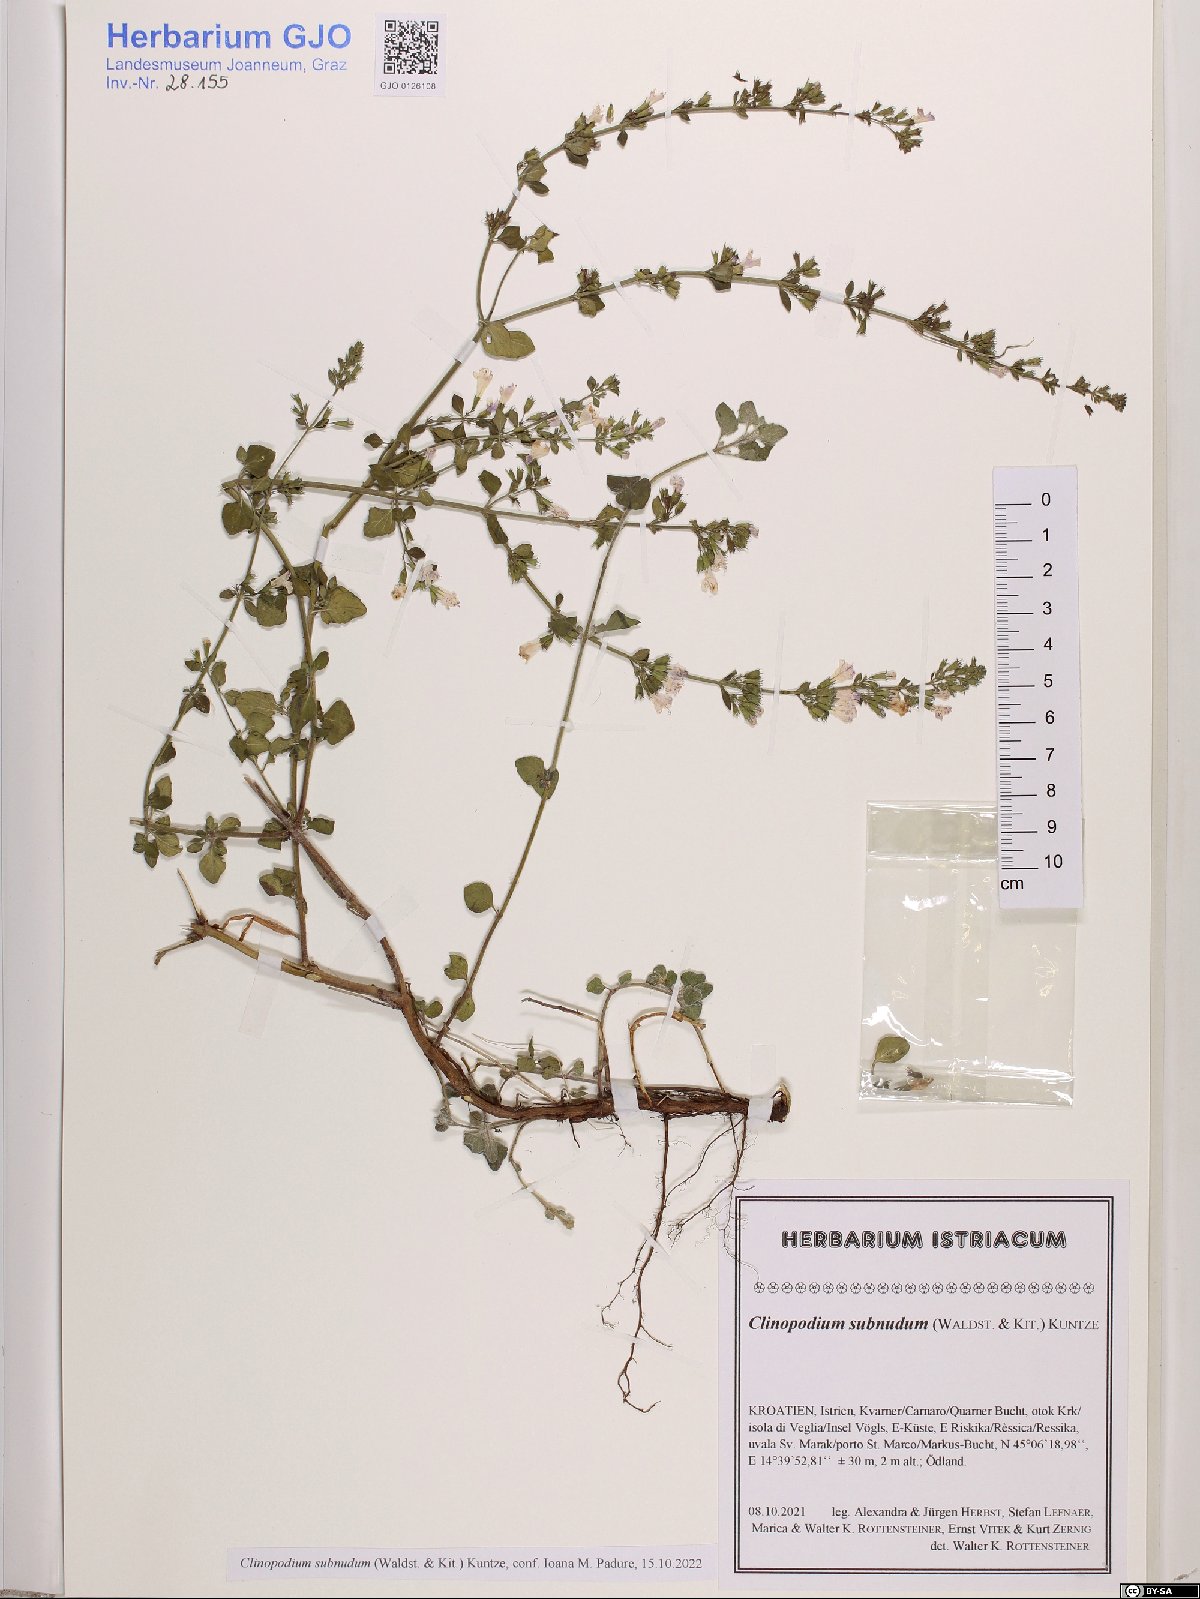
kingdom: Plantae
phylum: Tracheophyta
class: Magnoliopsida
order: Lamiales
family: Lamiaceae
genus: Clinopodium
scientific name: Clinopodium nepeta
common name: Lesser calamint
